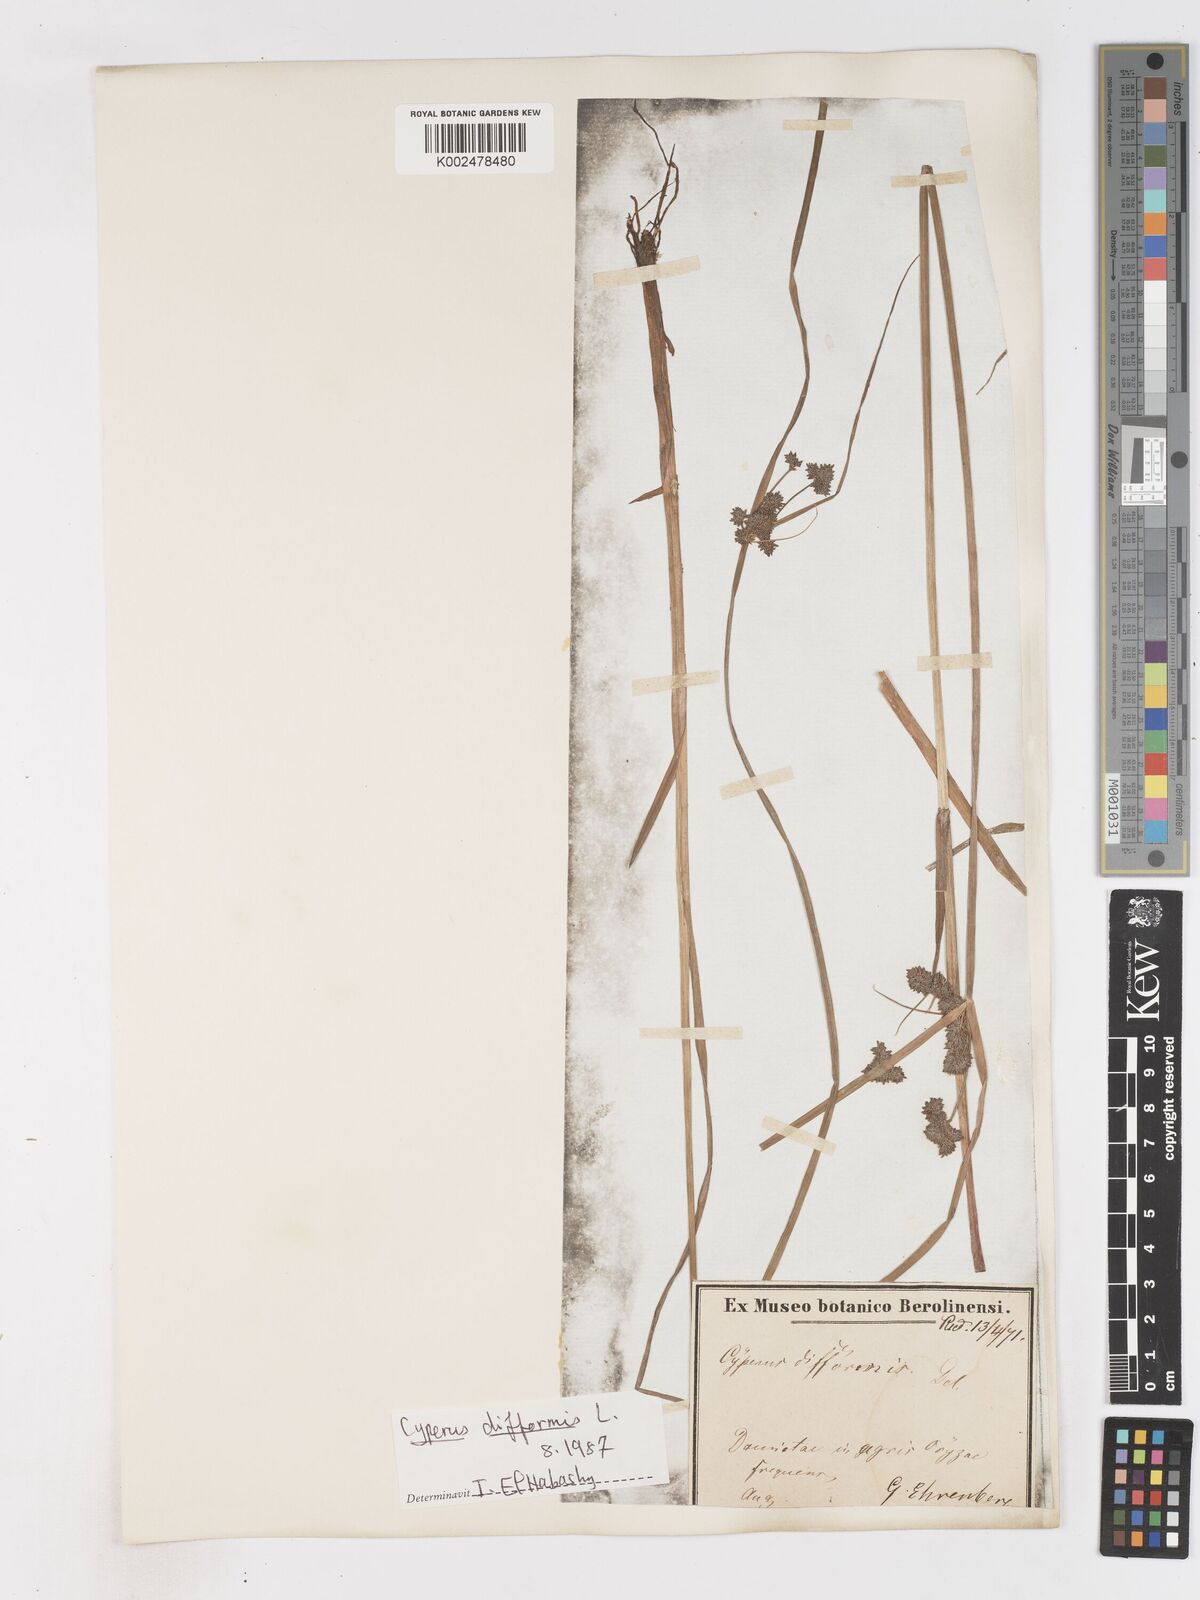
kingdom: Plantae
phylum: Tracheophyta
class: Liliopsida
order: Poales
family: Cyperaceae
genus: Cyperus
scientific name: Cyperus difformis
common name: Variable flatsedge
